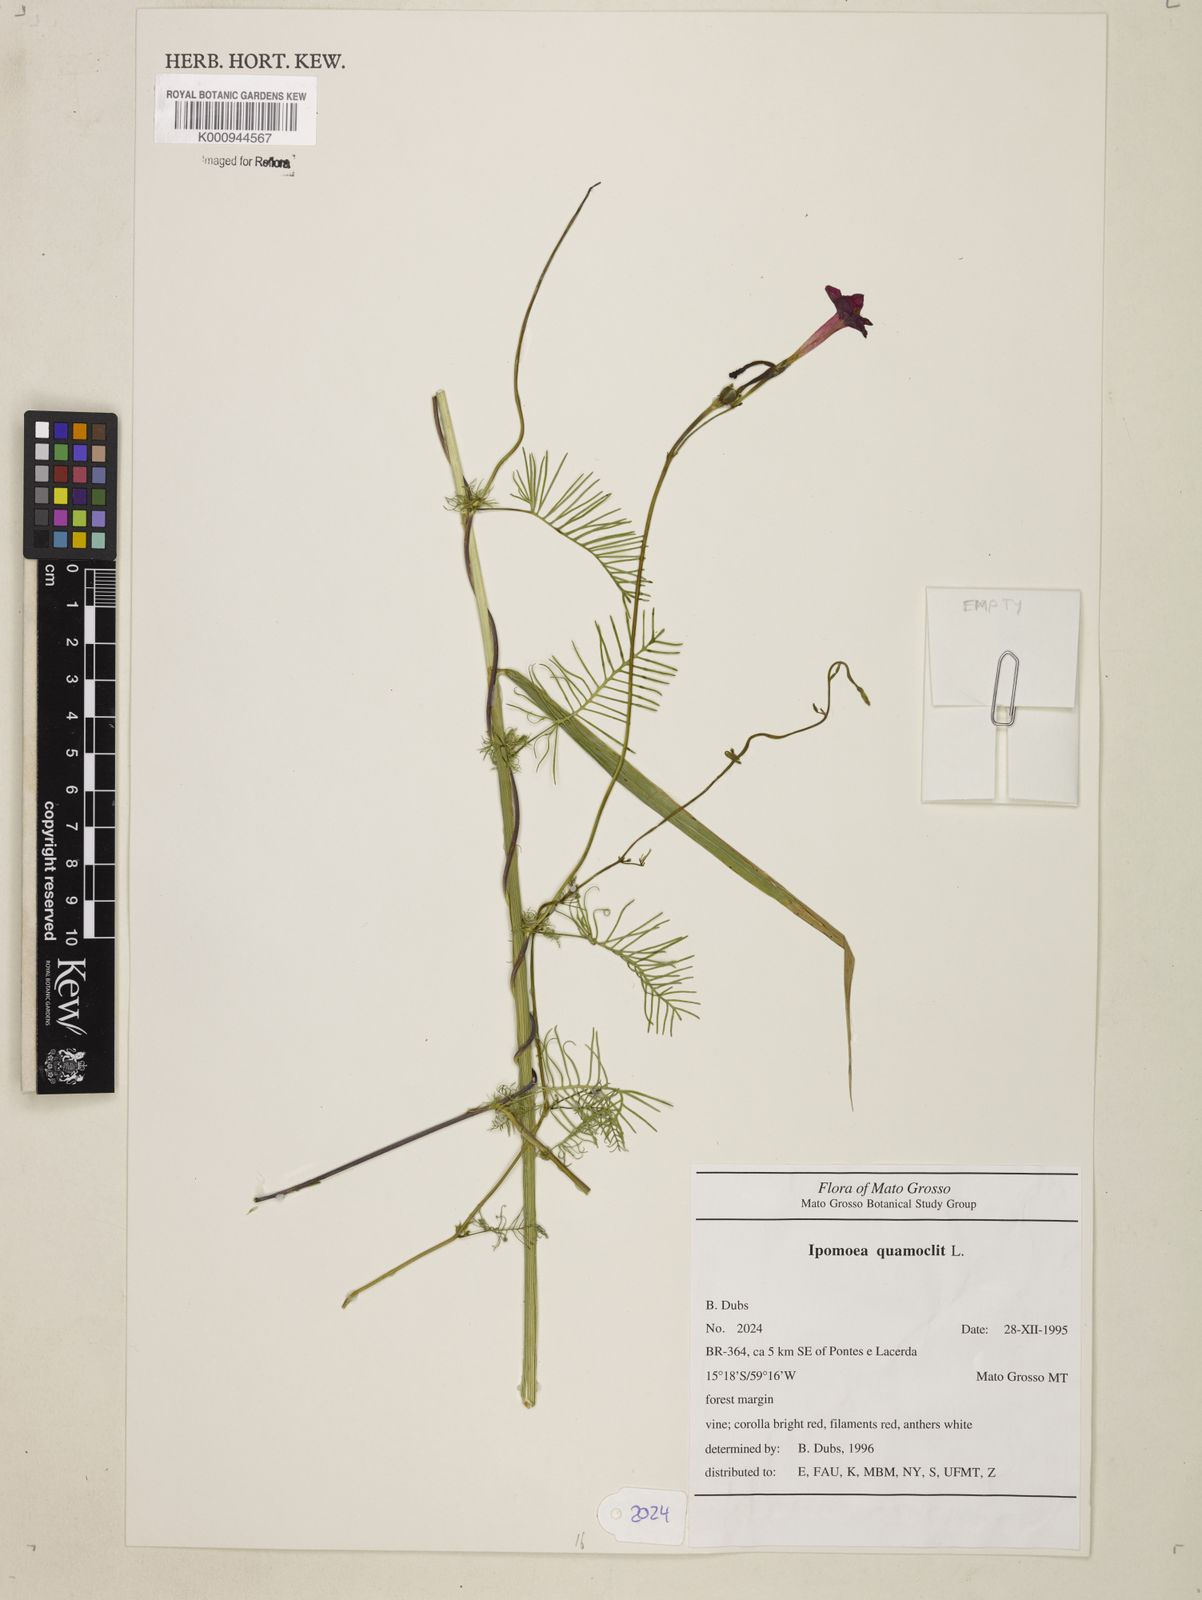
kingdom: Plantae
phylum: Tracheophyta
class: Magnoliopsida
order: Solanales
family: Convolvulaceae
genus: Ipomoea
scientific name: Ipomoea quamoclit
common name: Cypress vine
